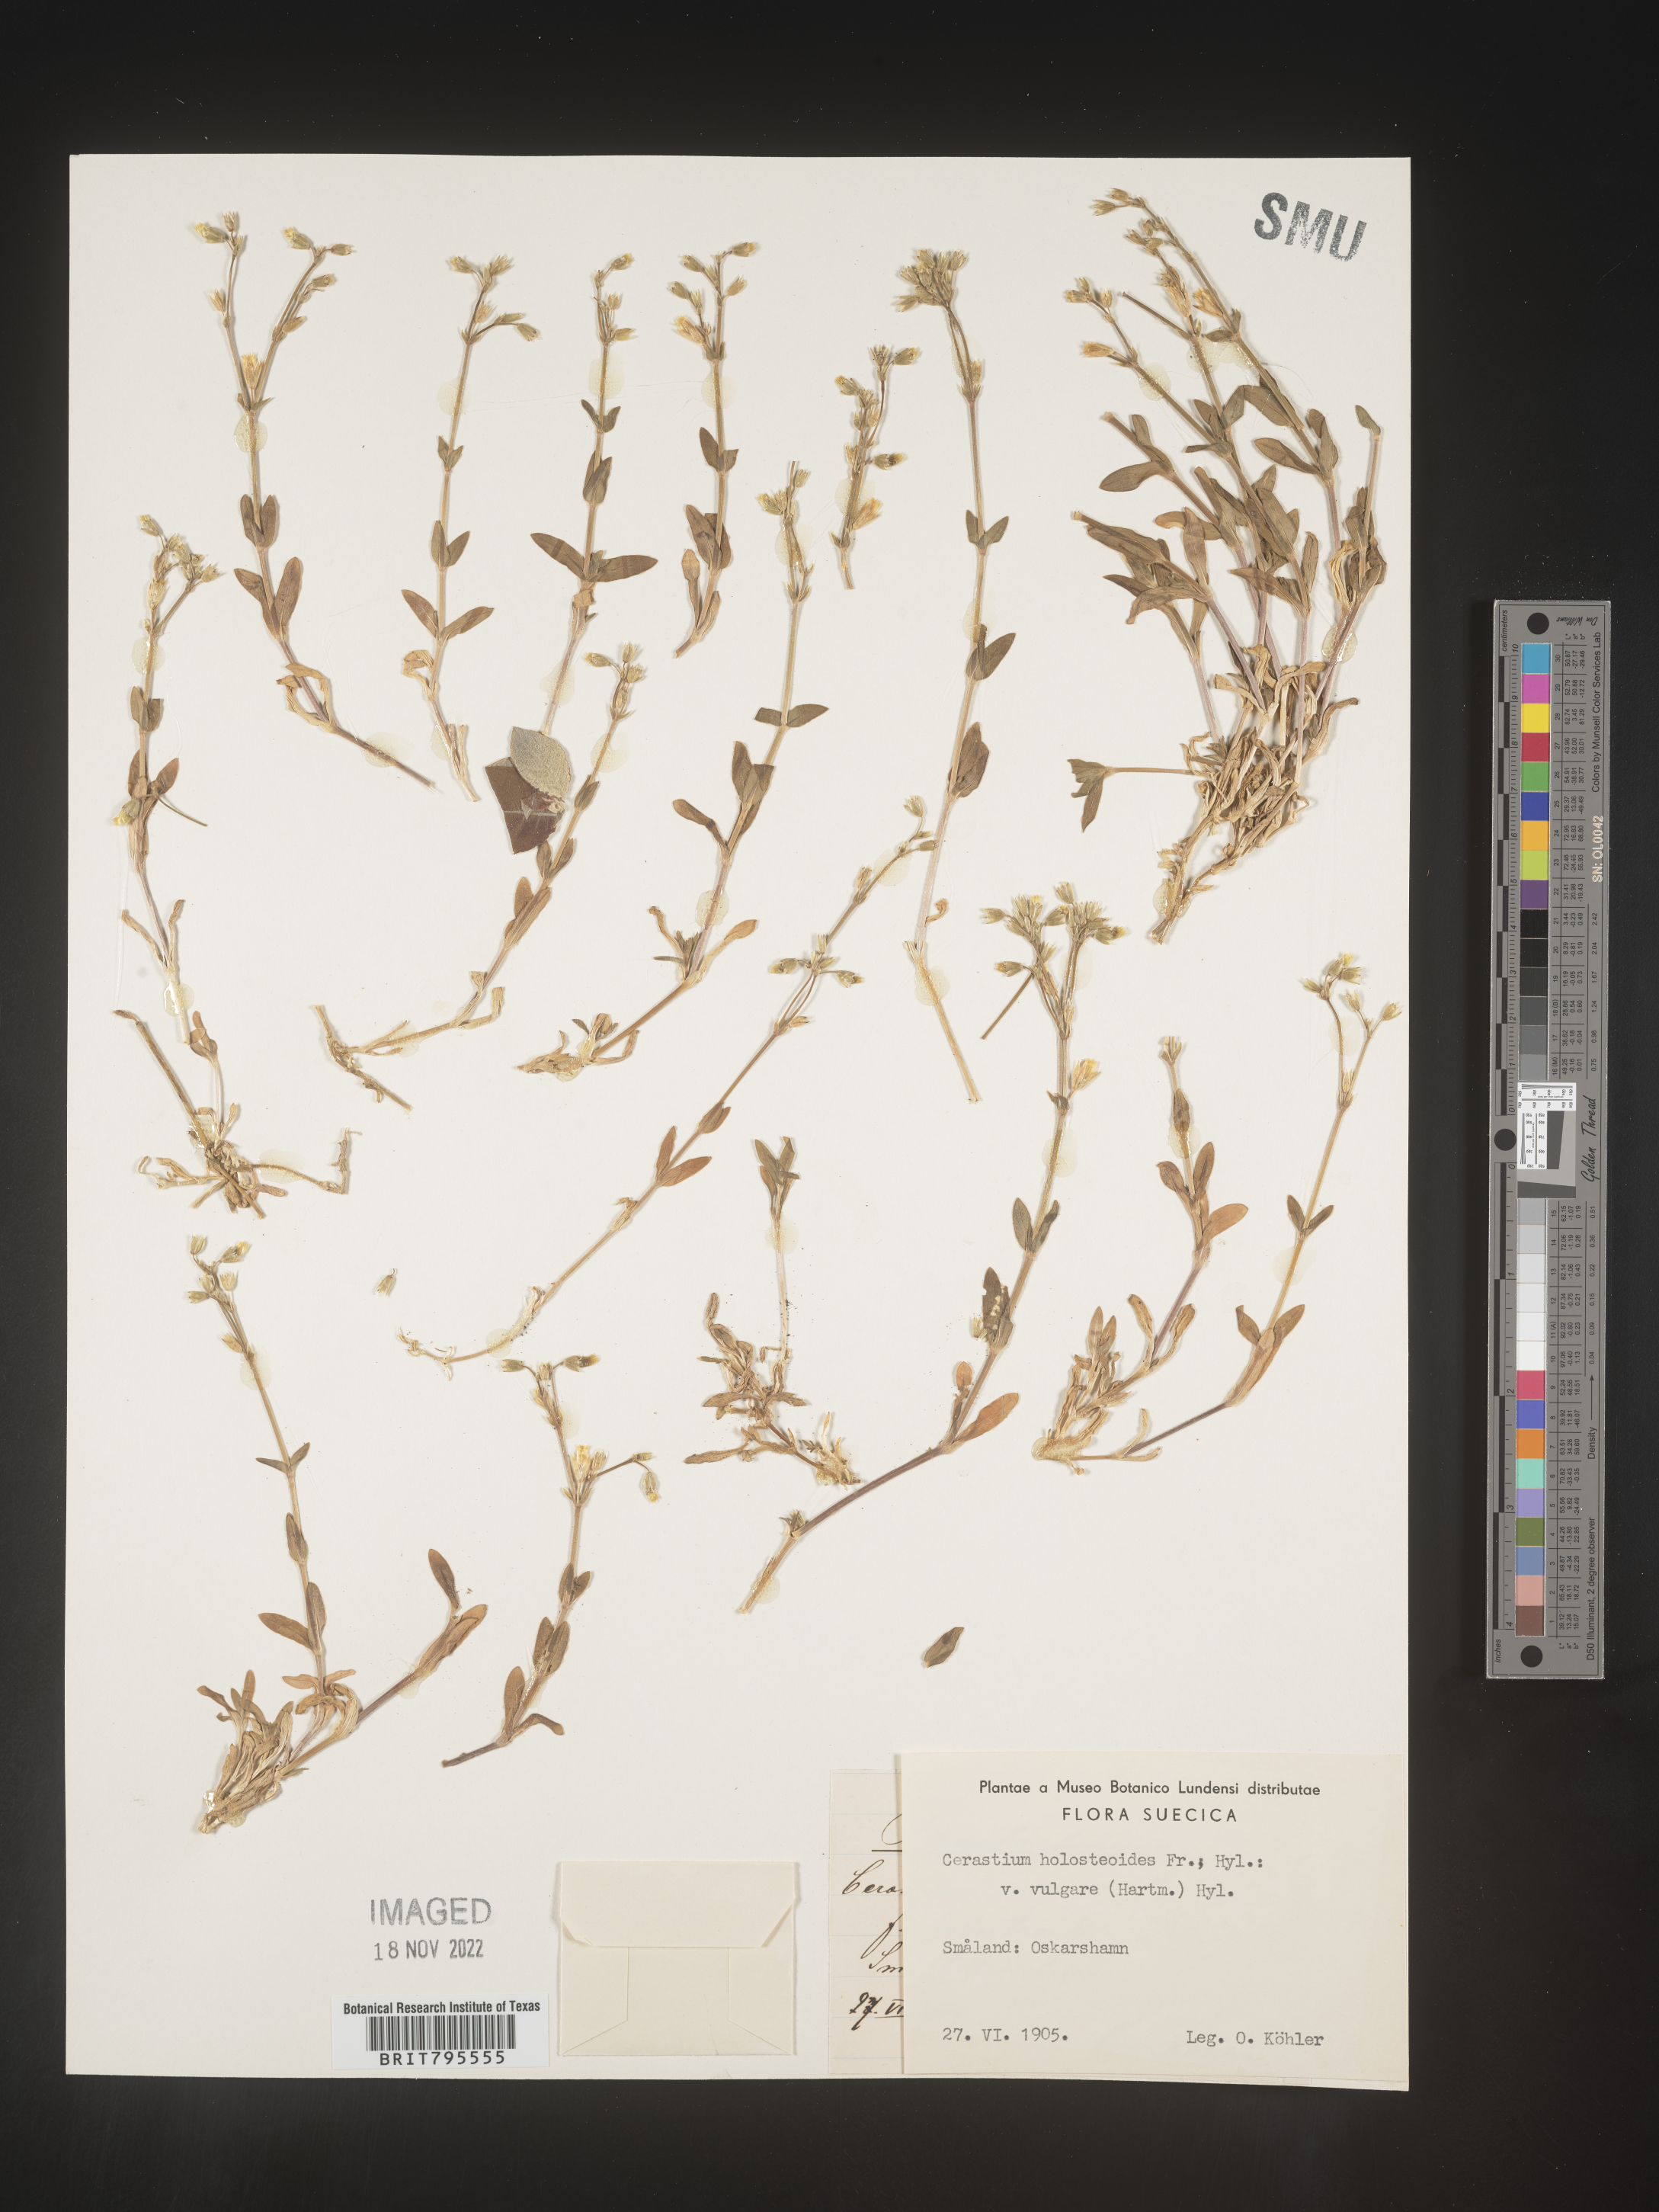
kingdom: Plantae
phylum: Tracheophyta
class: Magnoliopsida
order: Caryophyllales
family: Caryophyllaceae
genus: Cerastium
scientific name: Cerastium
